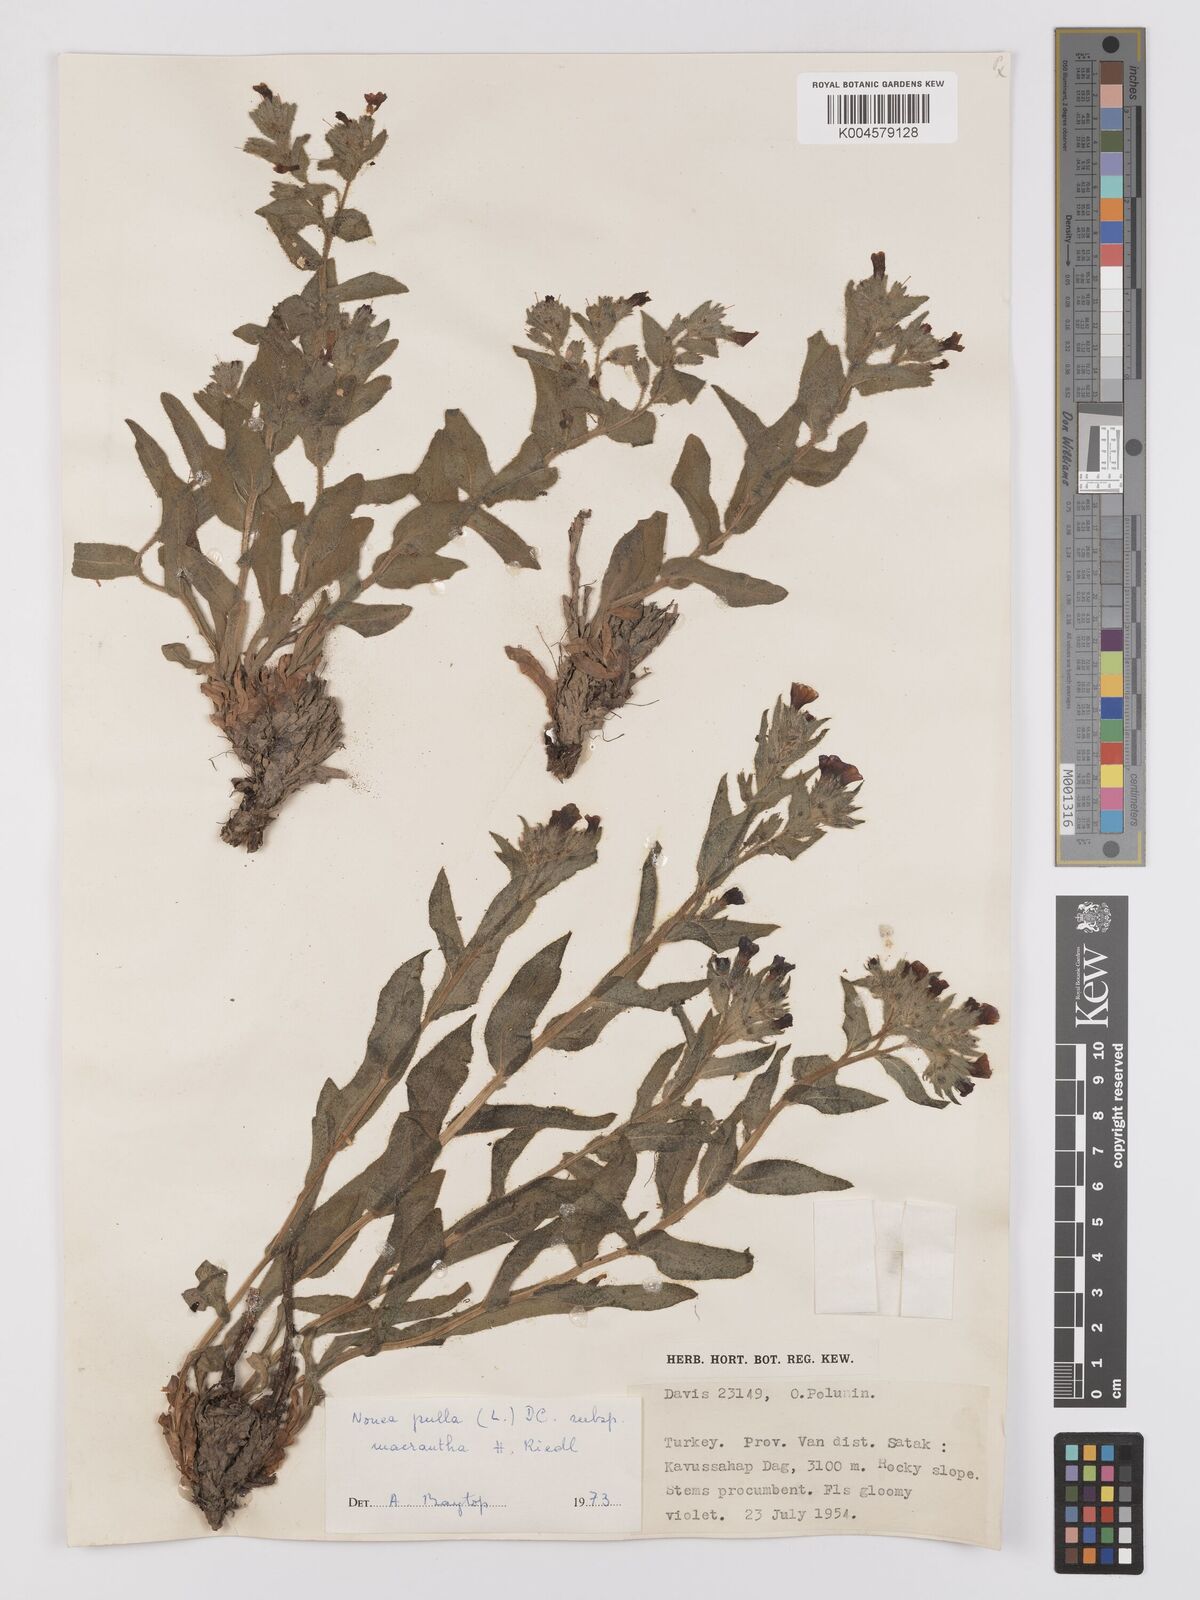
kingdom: Plantae
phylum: Tracheophyta
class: Magnoliopsida
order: Boraginales
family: Boraginaceae
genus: Nonea
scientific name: Nonea pulla
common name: Brown nonea
